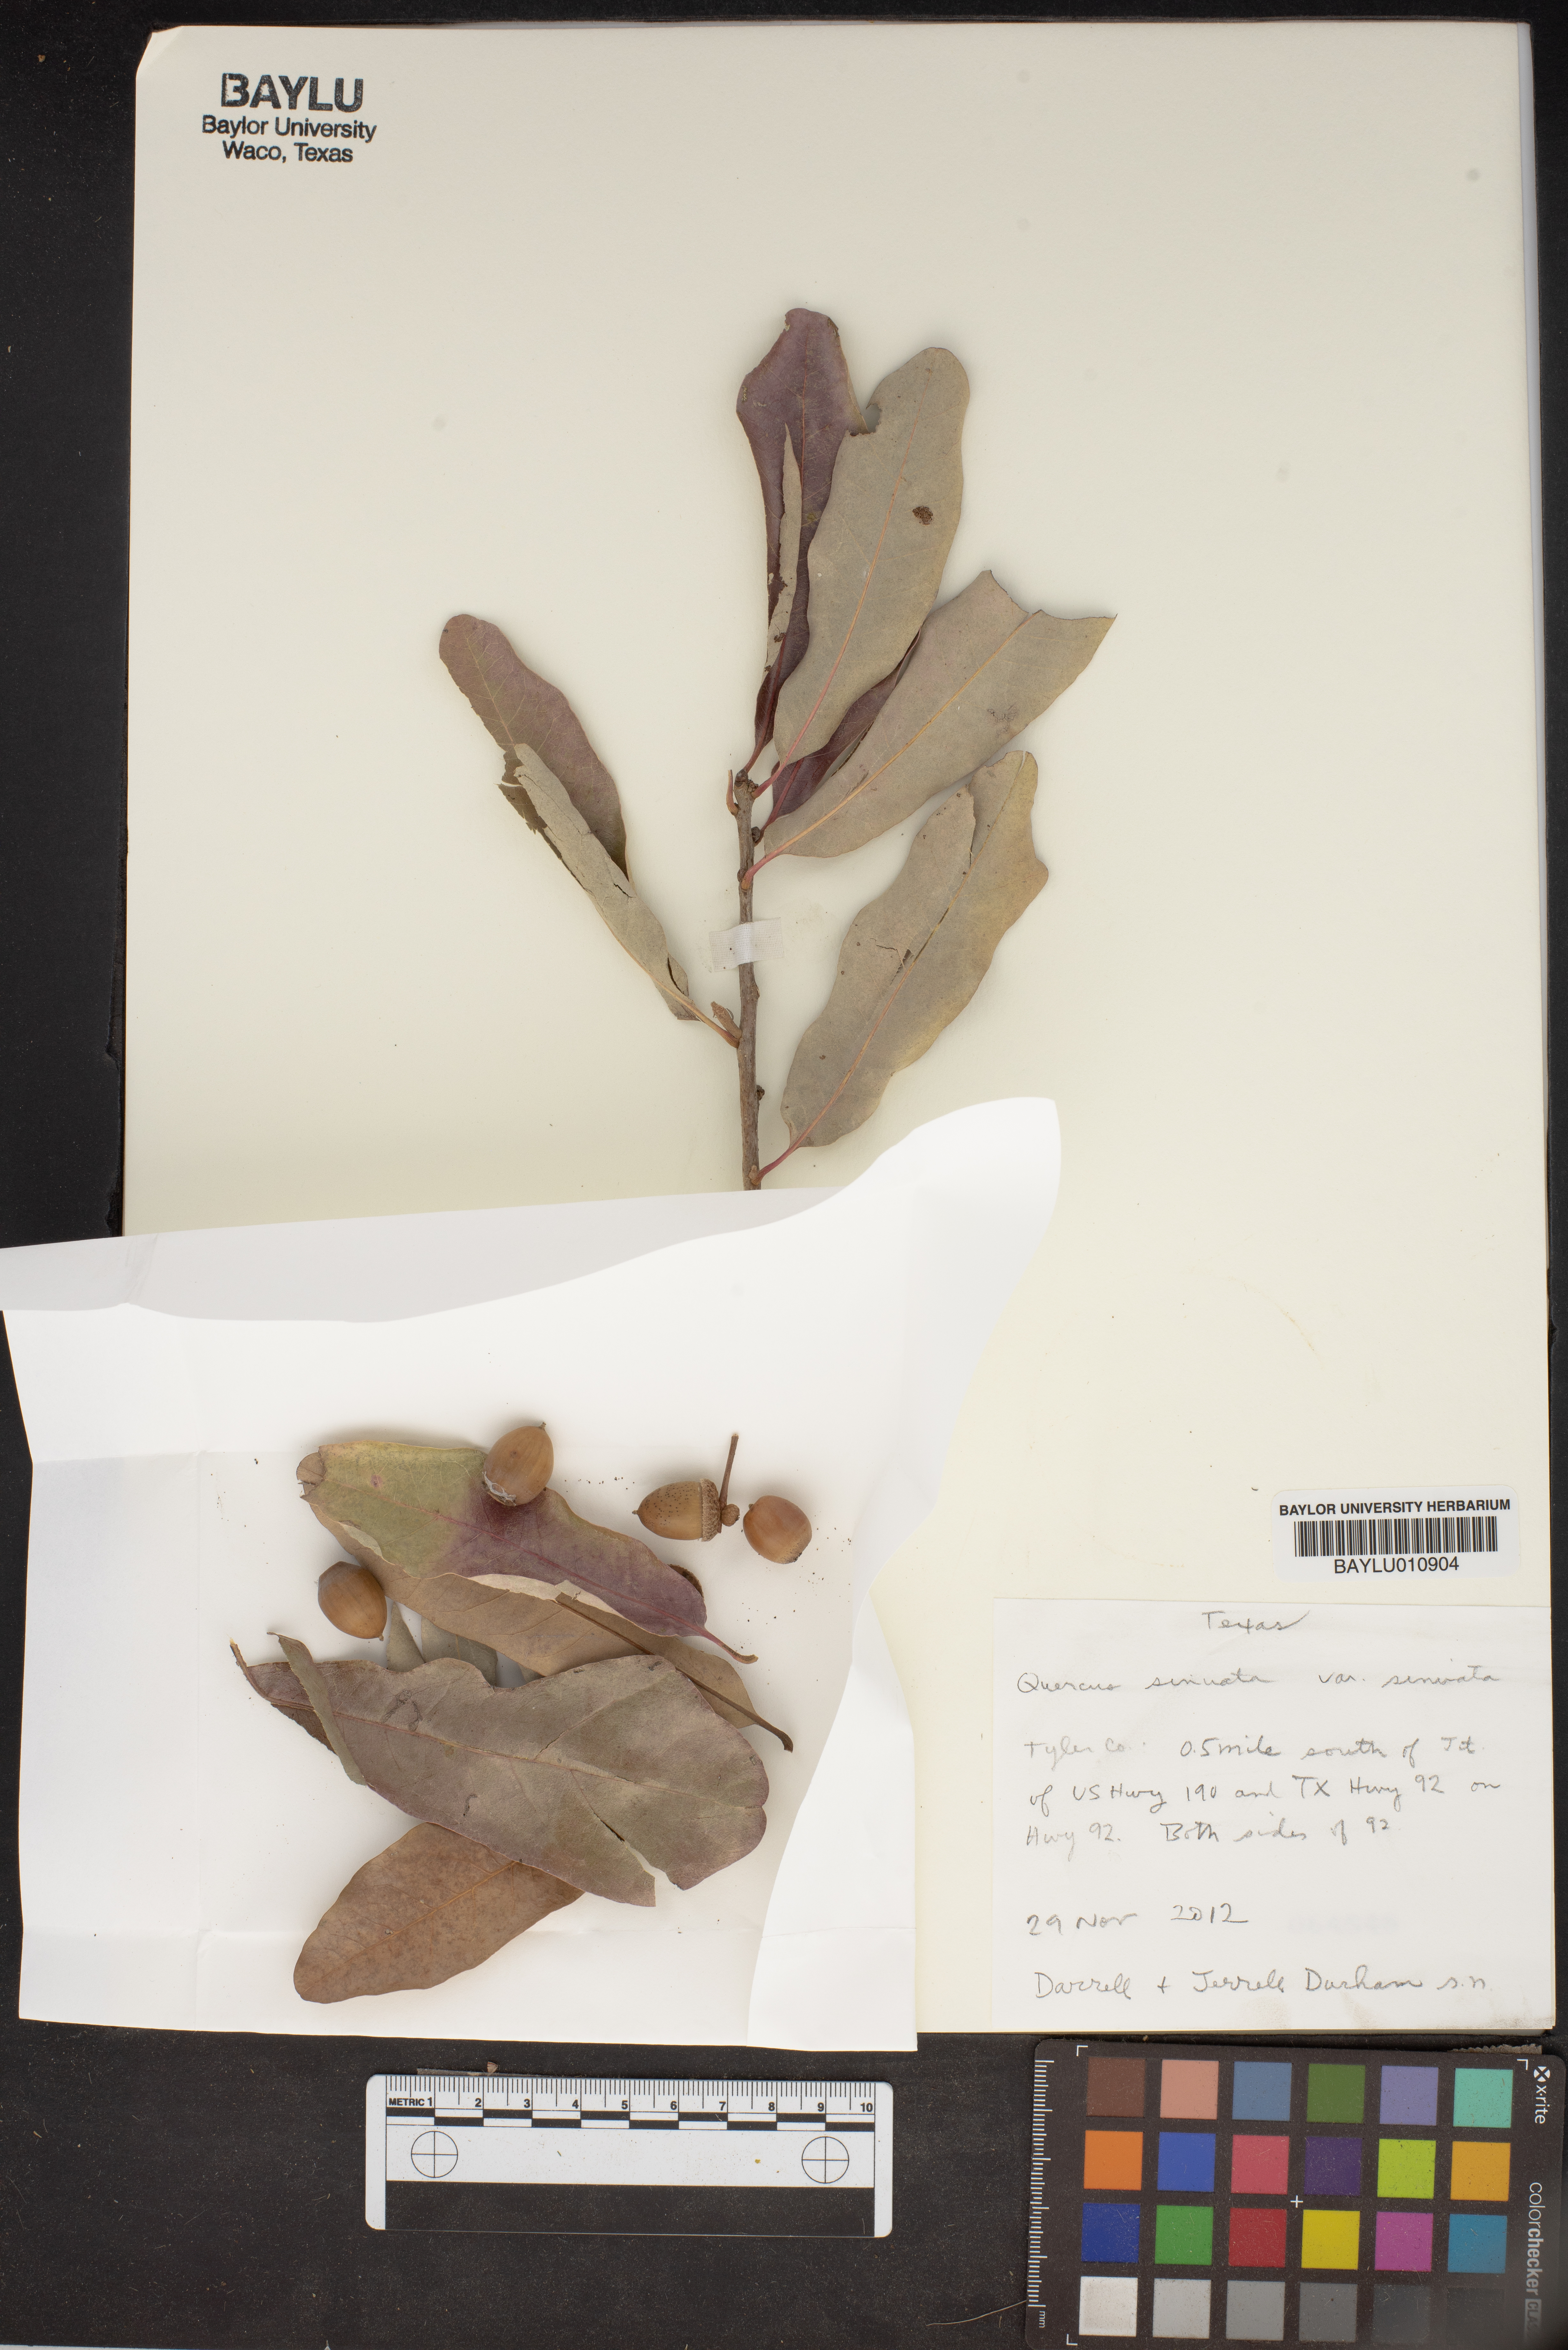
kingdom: Plantae
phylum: Tracheophyta
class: Magnoliopsida
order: Fagales
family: Fagaceae
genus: Quercus
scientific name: Quercus sinuata
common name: Durand oak
